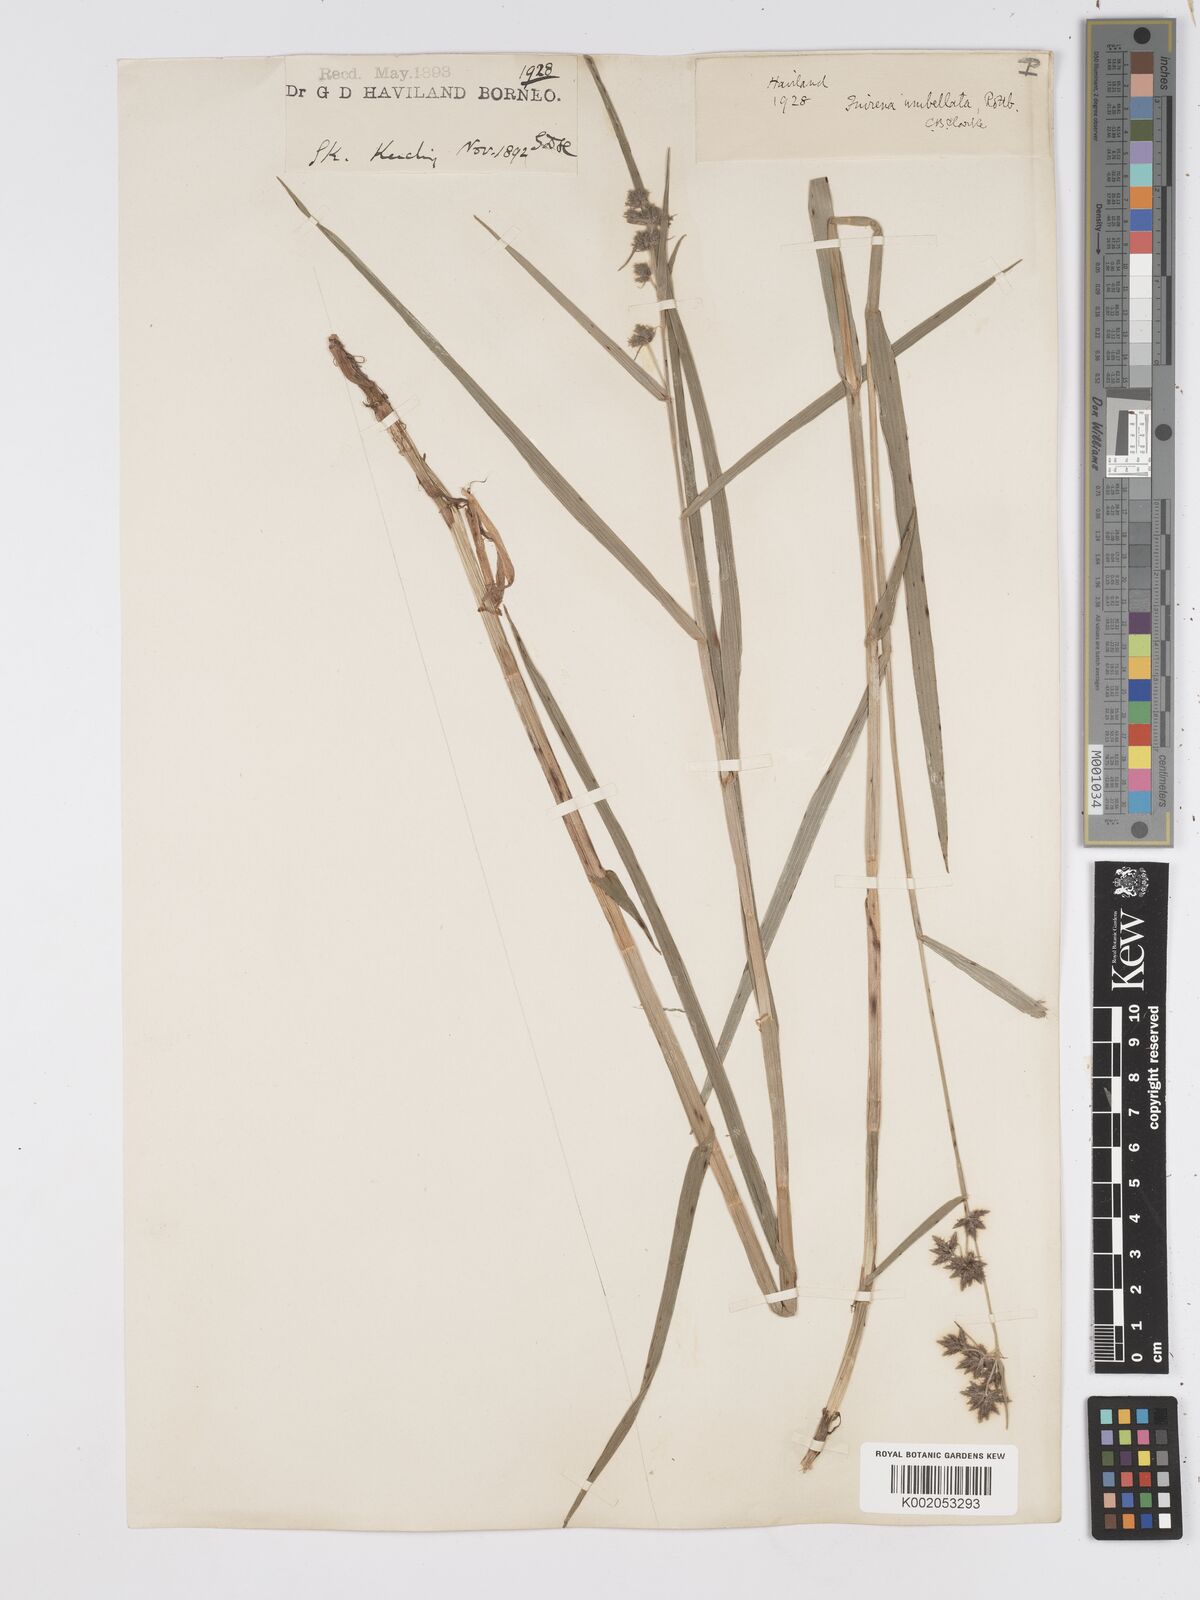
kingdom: Plantae
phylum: Tracheophyta
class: Liliopsida
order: Poales
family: Cyperaceae
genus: Fuirena
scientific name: Fuirena umbellata
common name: Yefen
